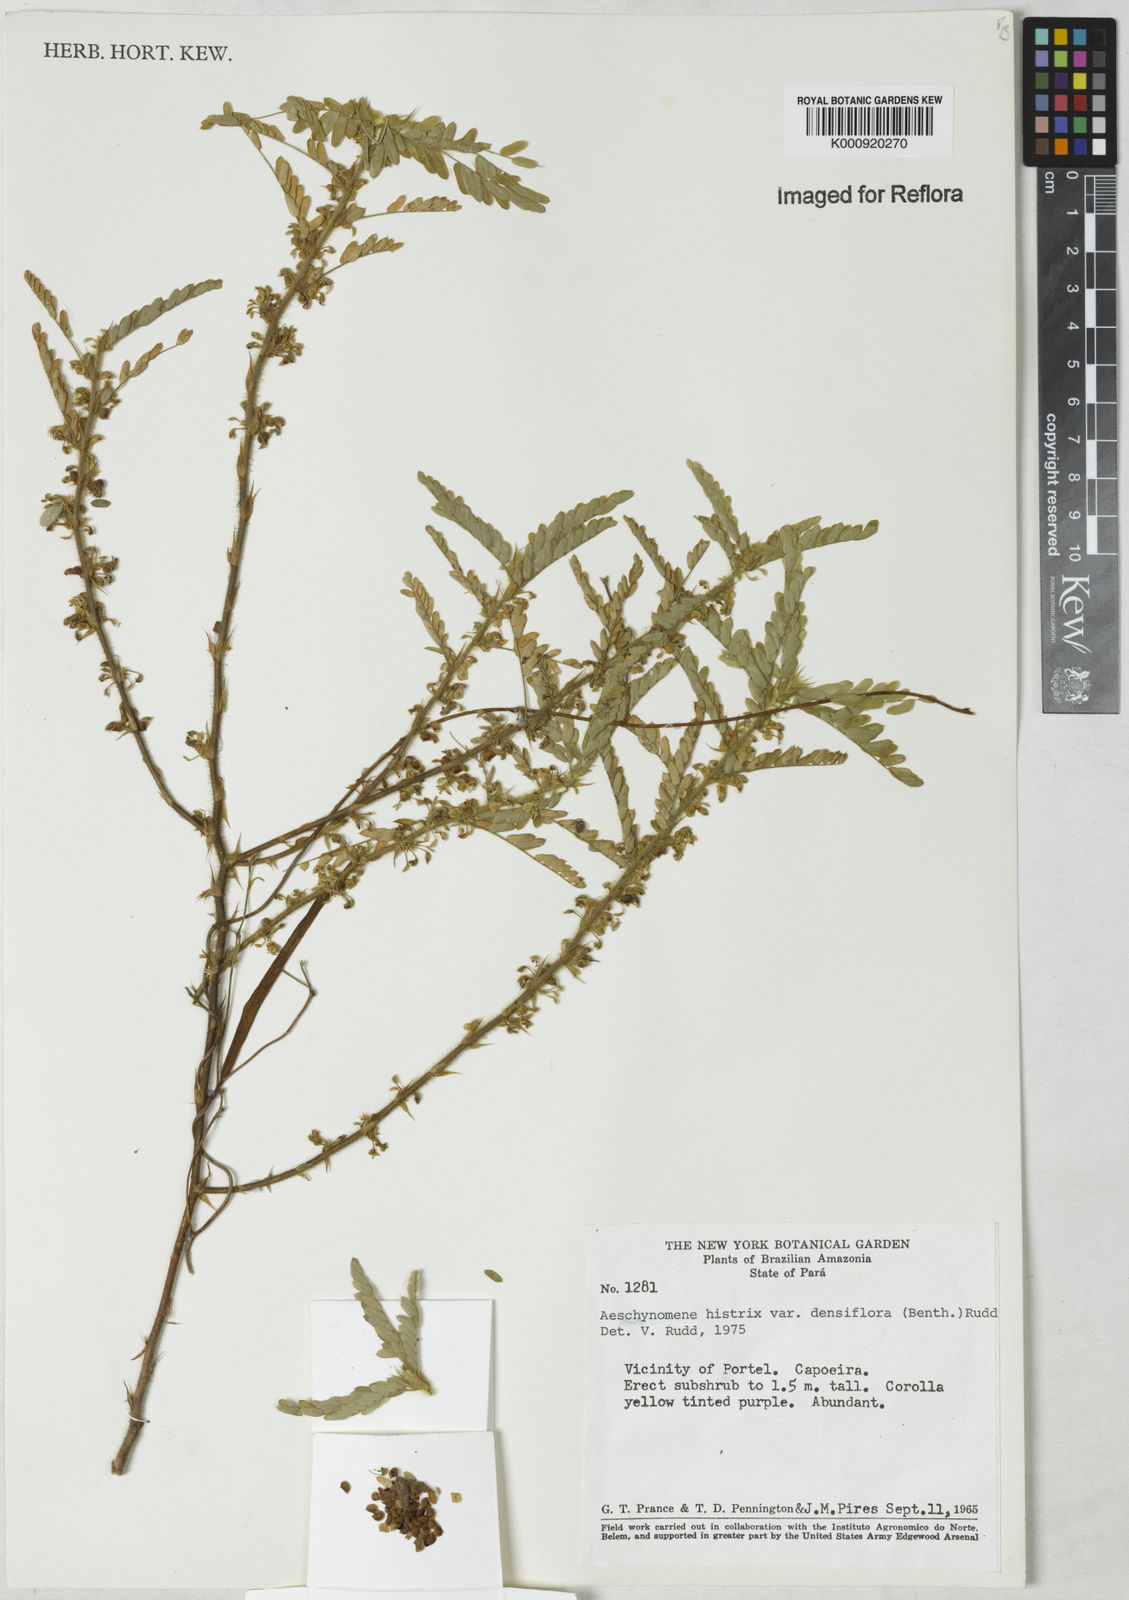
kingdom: Plantae
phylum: Tracheophyta
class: Magnoliopsida
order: Fabales
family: Fabaceae
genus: Ctenodon
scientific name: Ctenodon histrix
